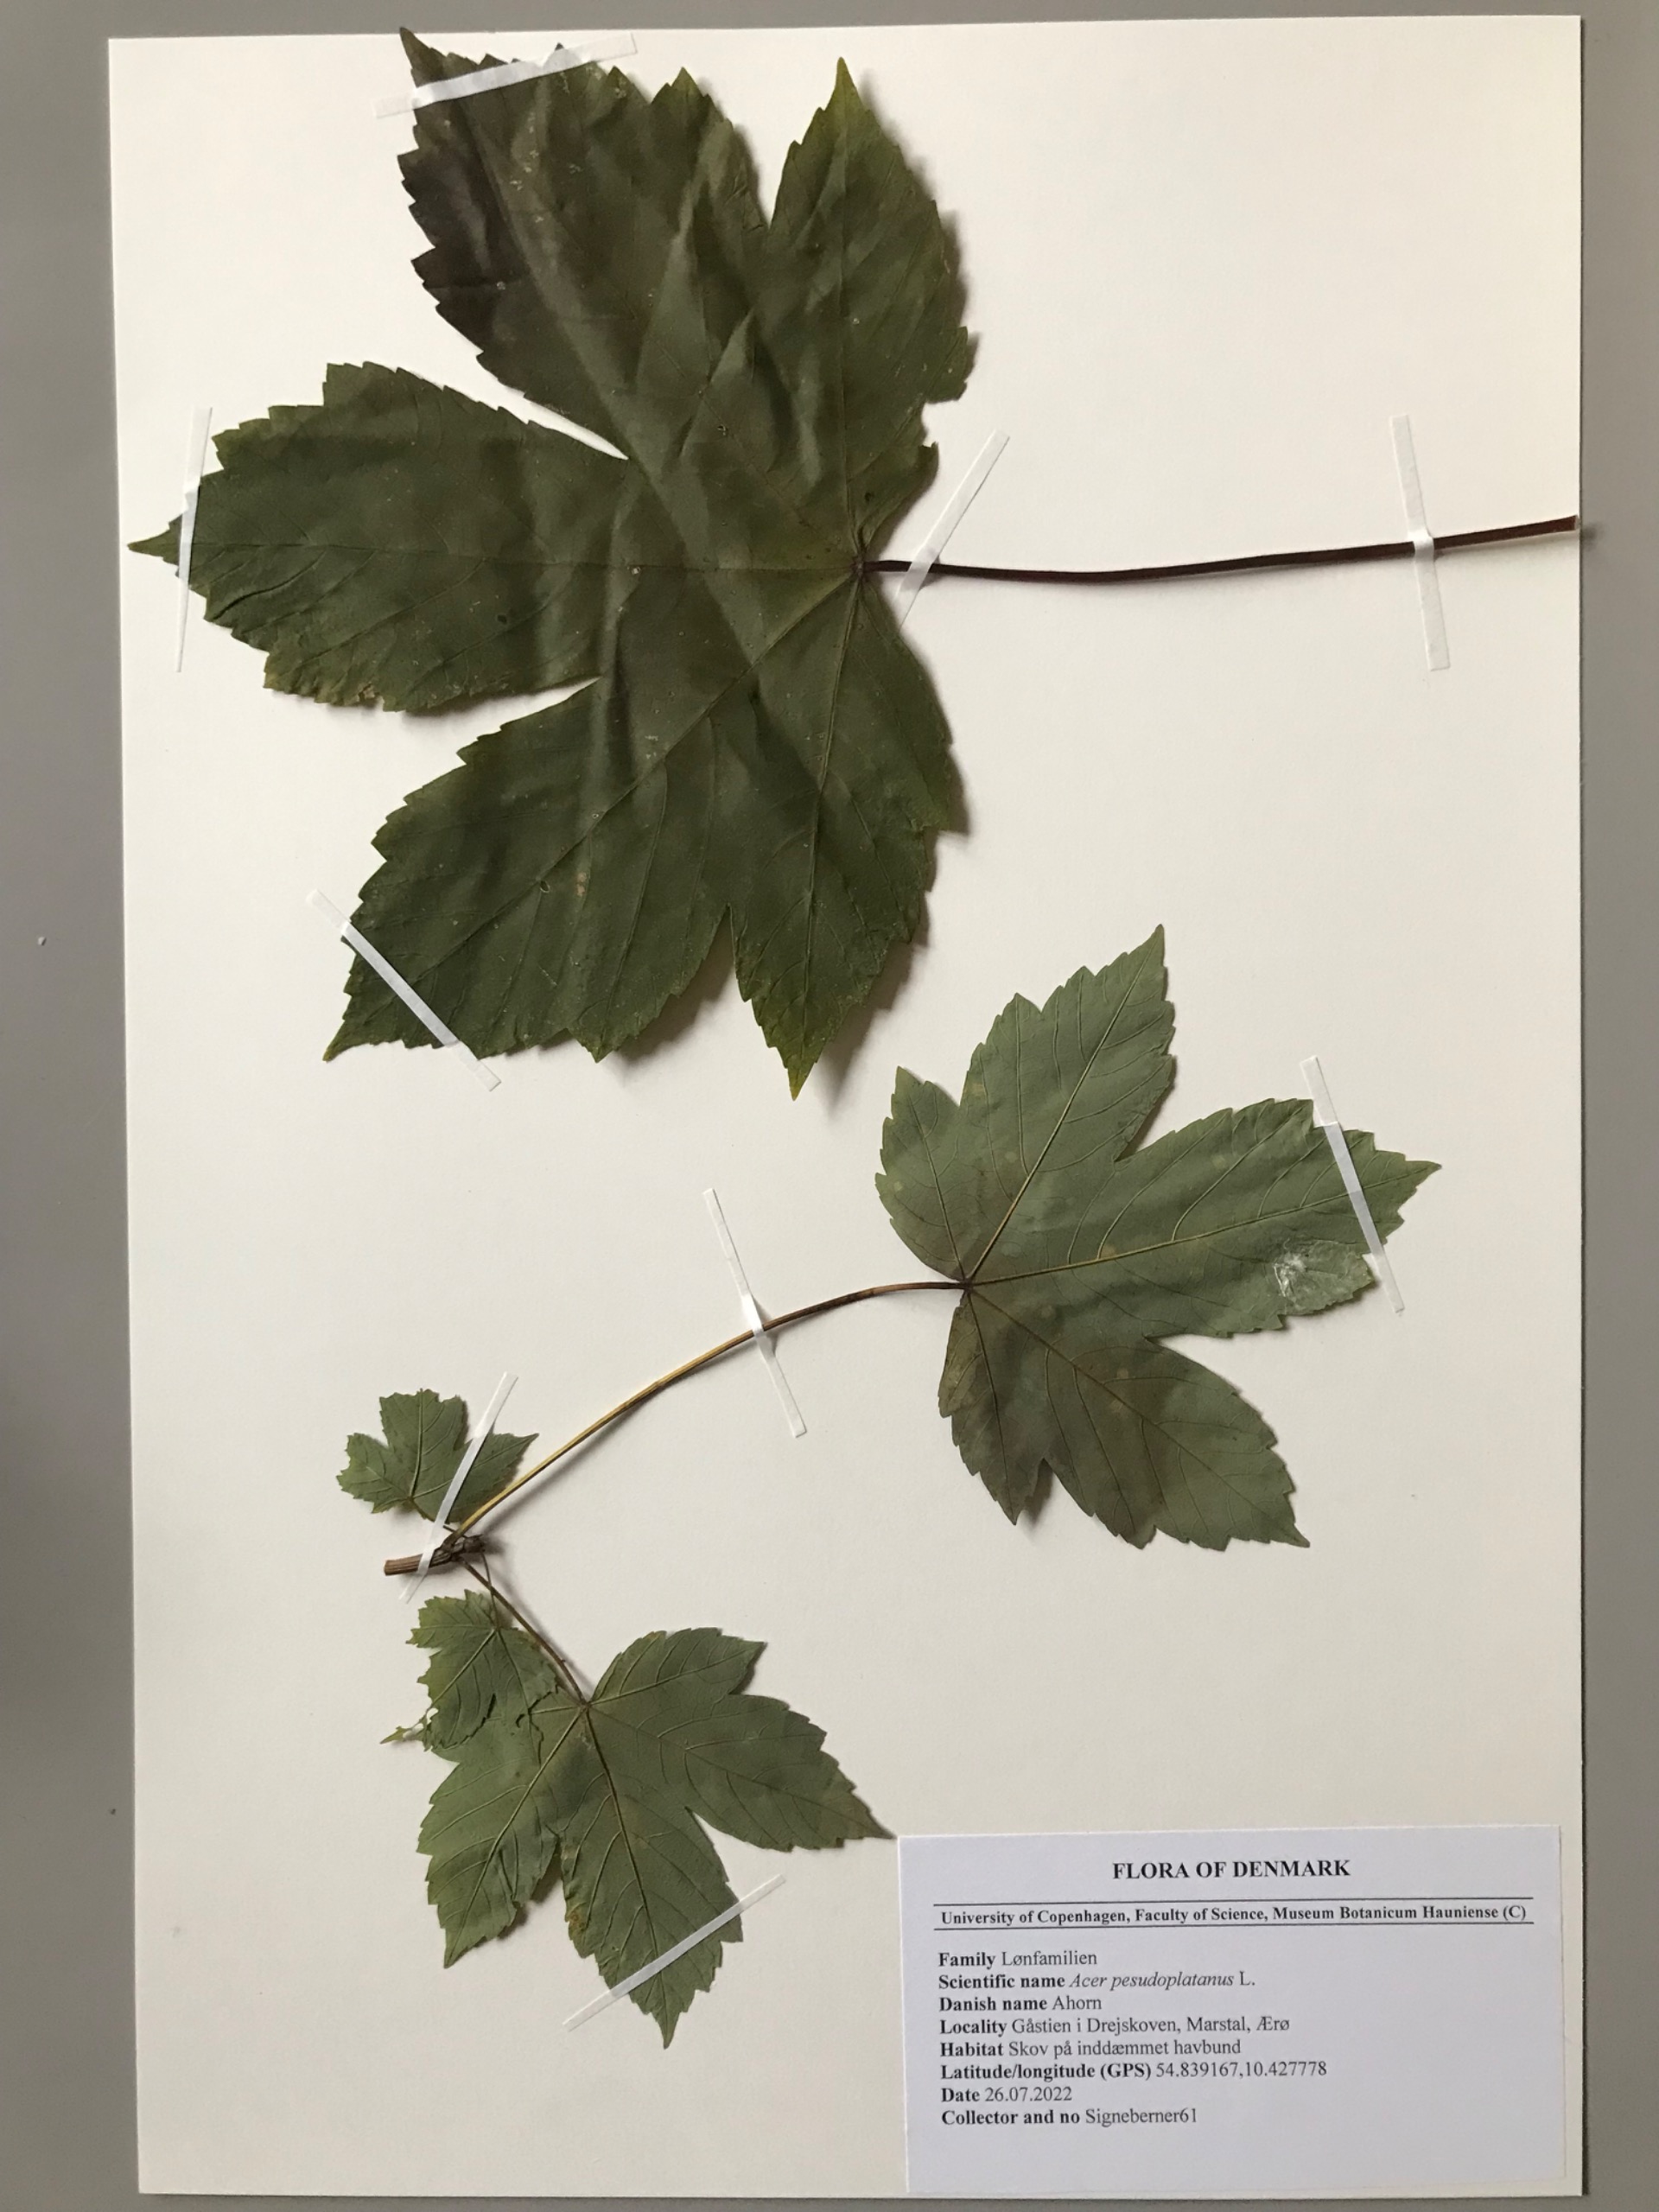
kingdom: Plantae
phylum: Tracheophyta
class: Magnoliopsida
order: Sapindales
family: Sapindaceae
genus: Acer
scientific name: Acer pseudoplatanus
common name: Ahorn
